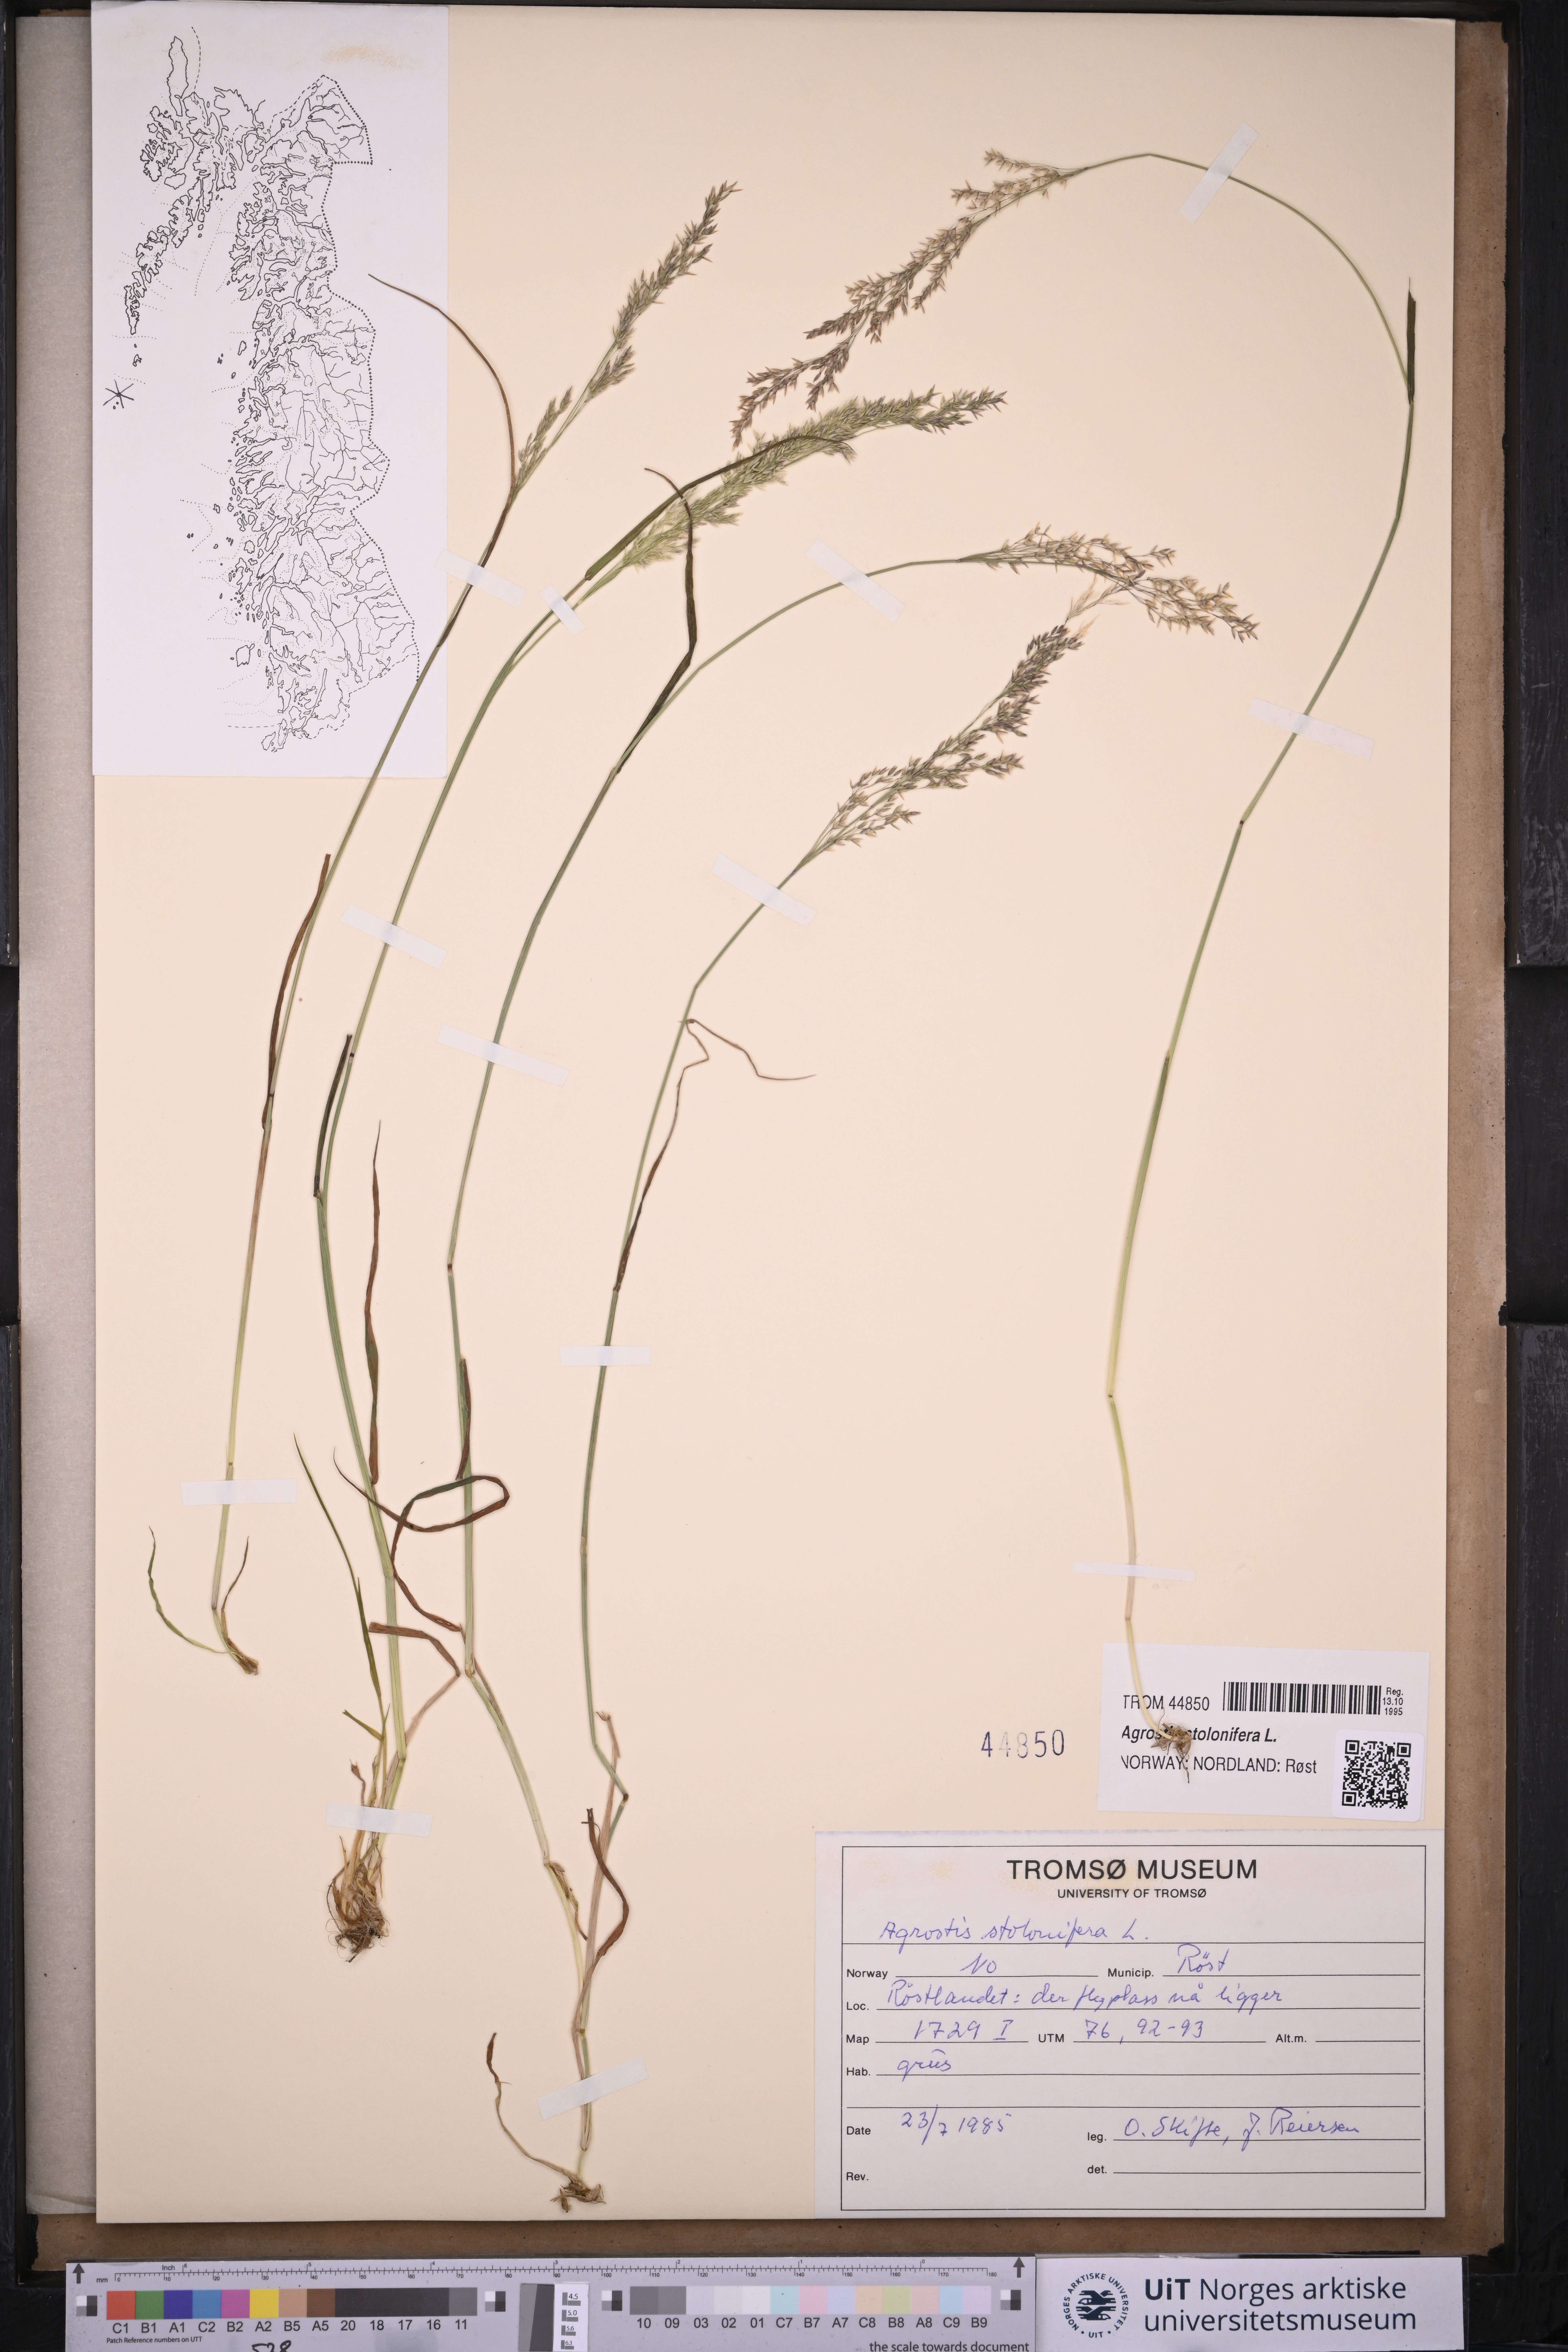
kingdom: Plantae
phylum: Tracheophyta
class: Liliopsida
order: Poales
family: Poaceae
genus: Agrostis
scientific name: Agrostis stolonifera
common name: Creeping bentgrass
